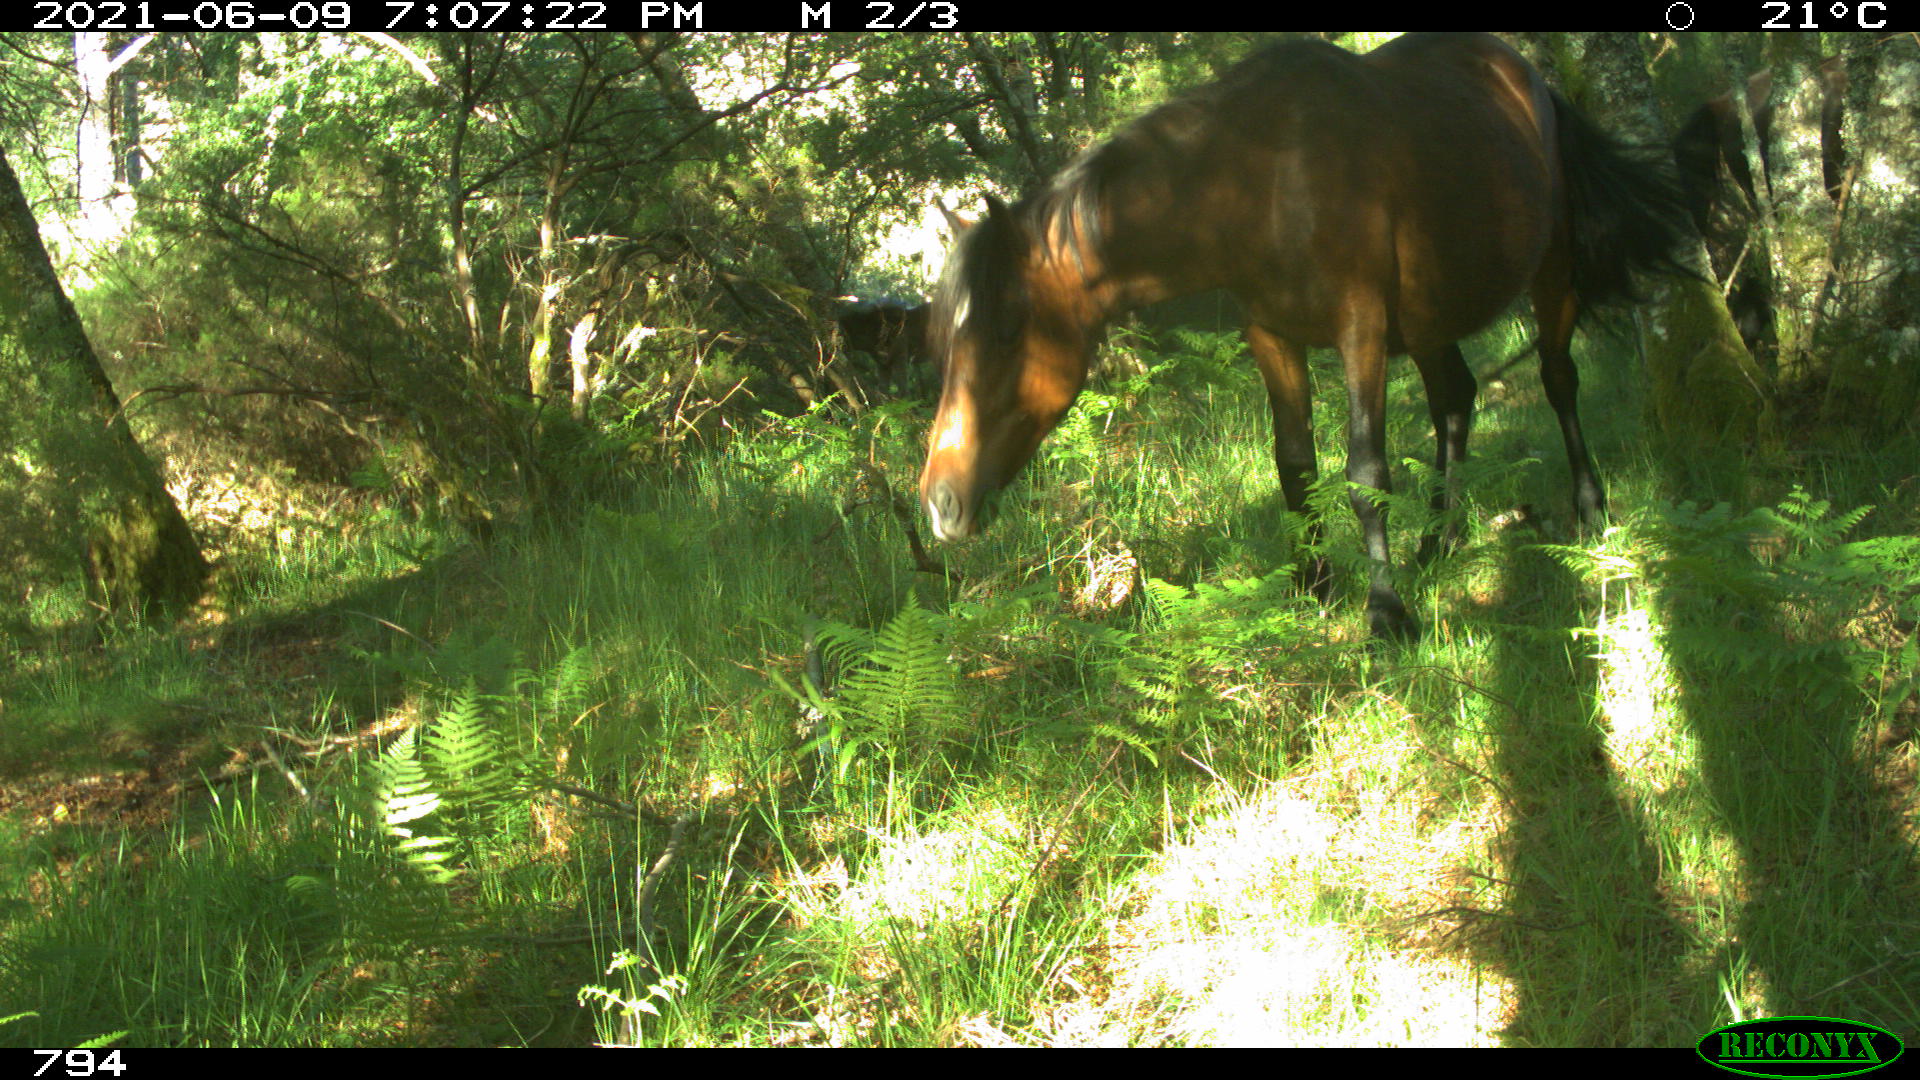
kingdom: Animalia
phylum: Chordata
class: Mammalia
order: Perissodactyla
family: Equidae
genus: Equus
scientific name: Equus caballus
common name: Horse
